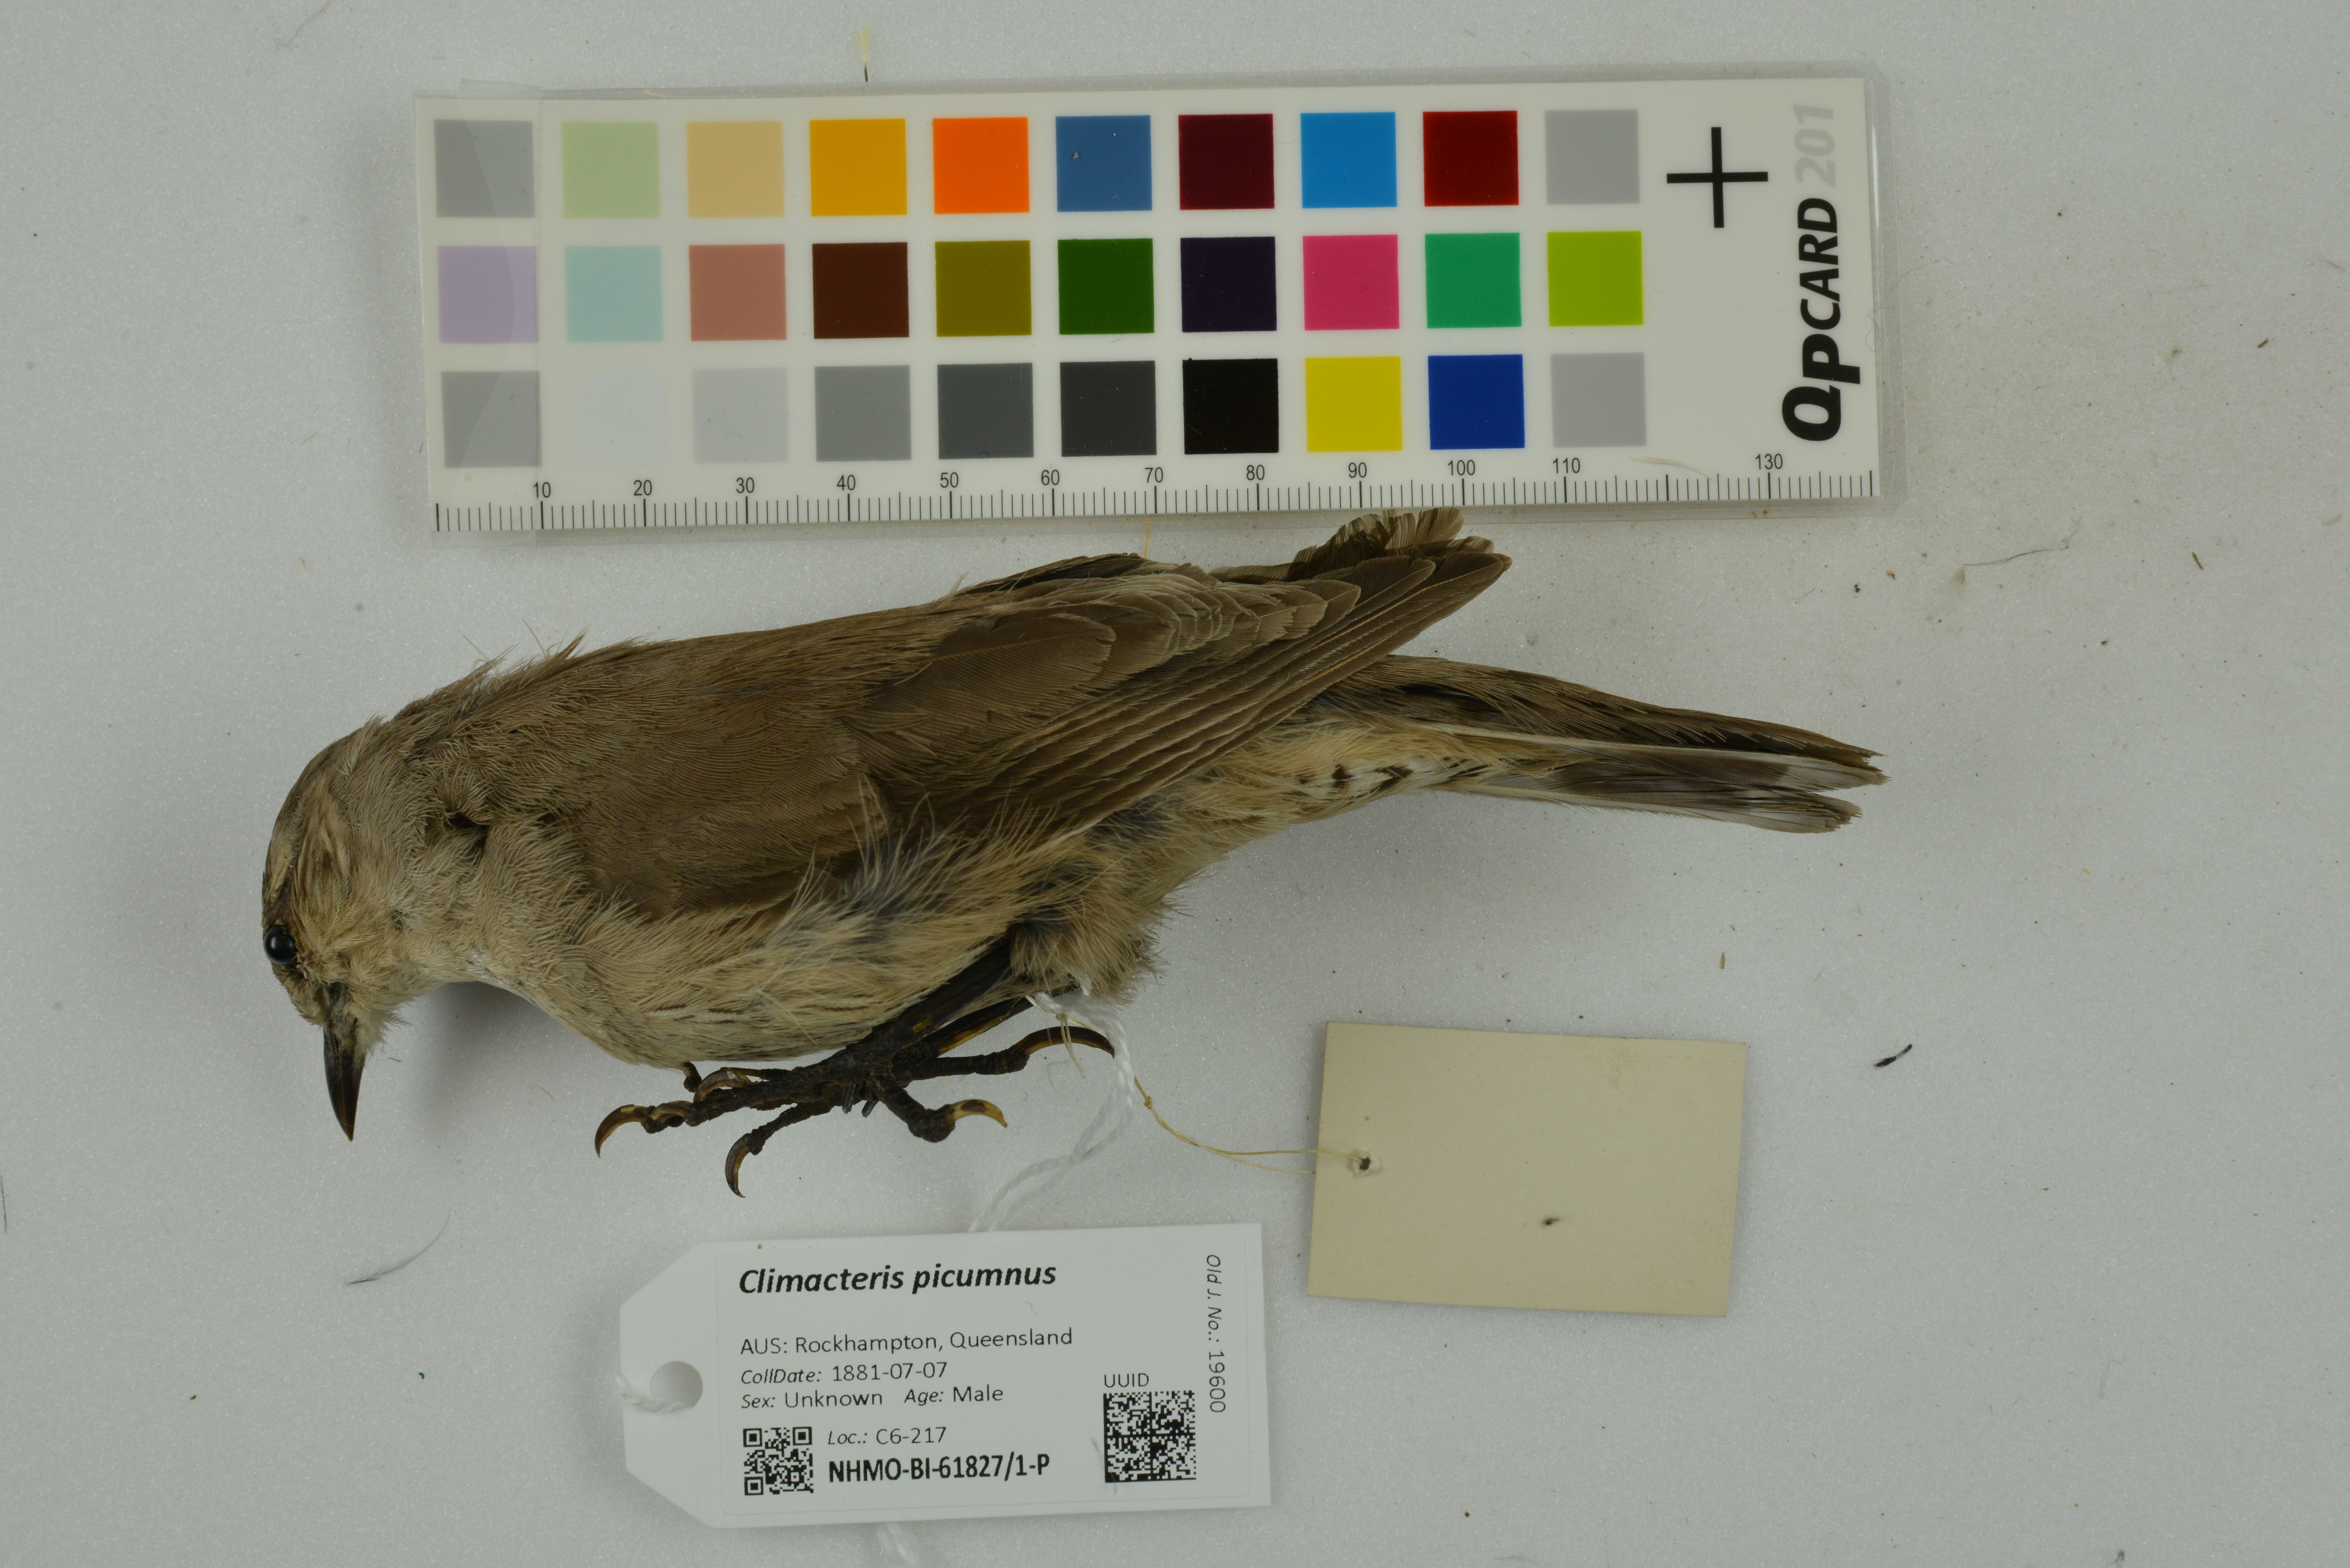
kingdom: Animalia
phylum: Chordata
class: Aves
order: Passeriformes
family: Climacteridae
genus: Climacteris
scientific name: Climacteris picumnus
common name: Brown treecreeper
